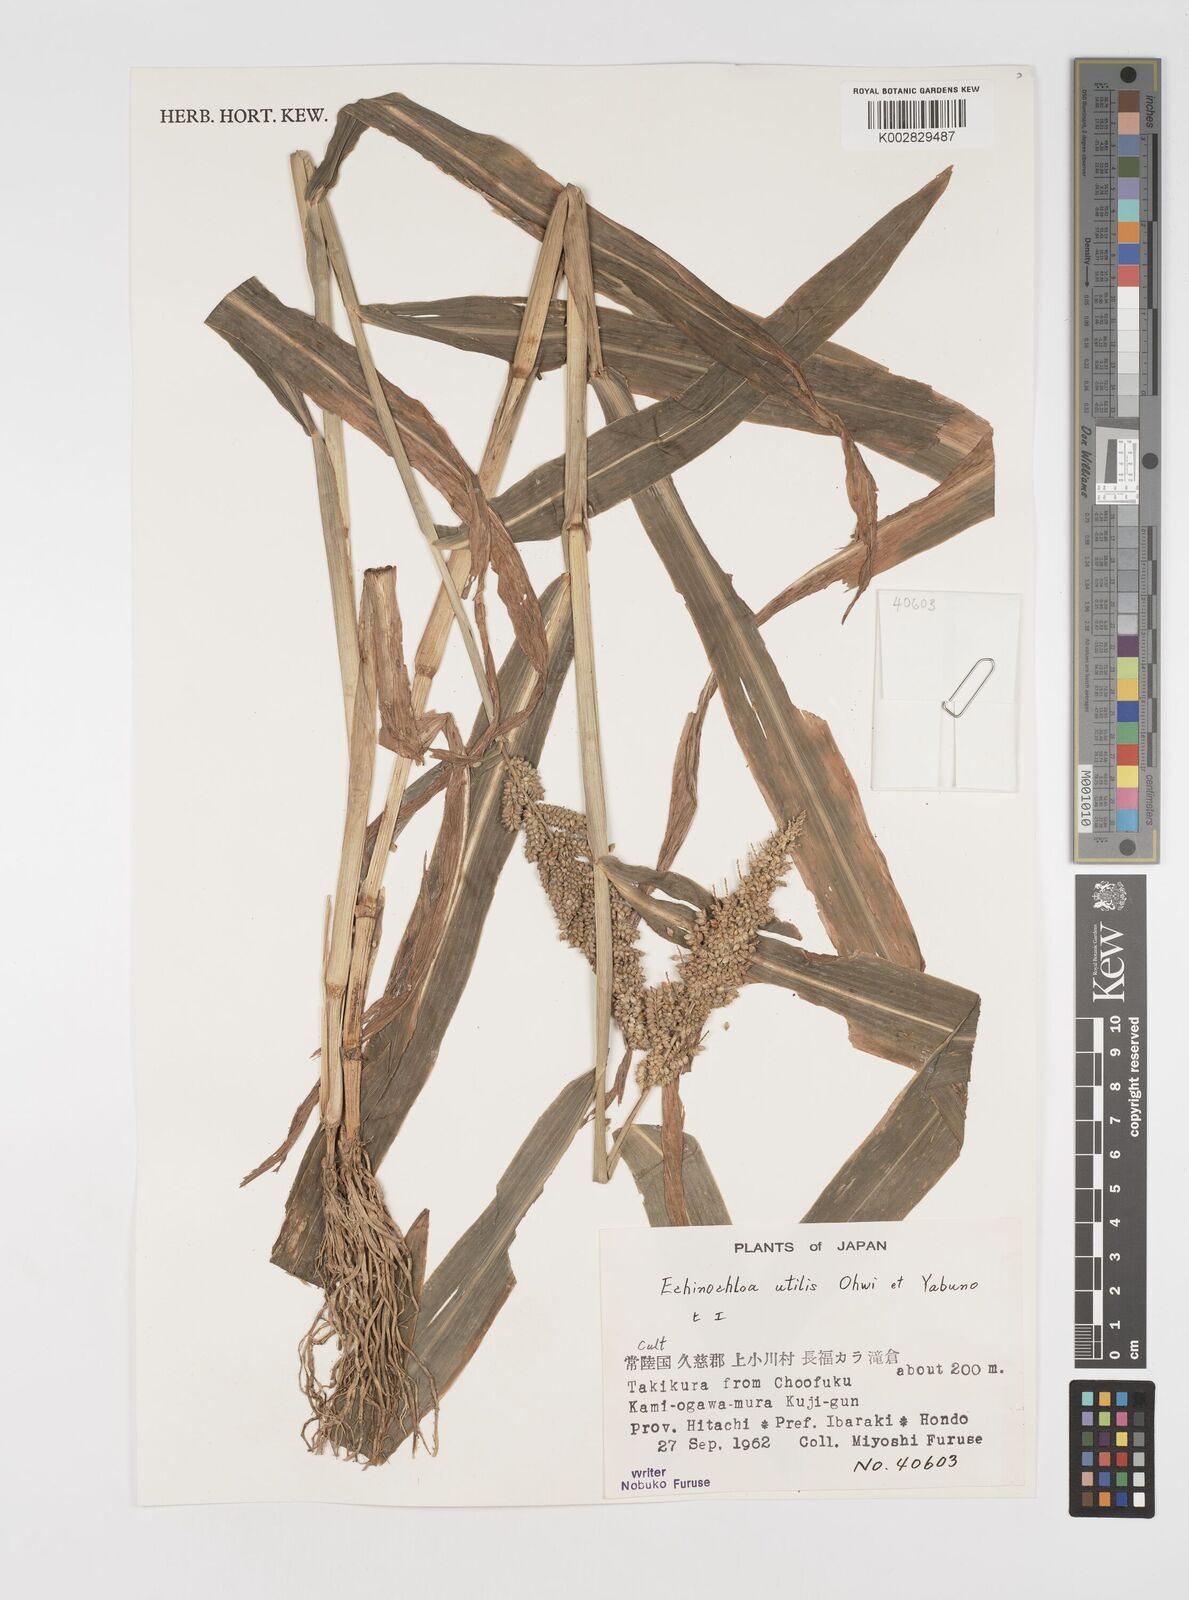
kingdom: Plantae
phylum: Tracheophyta
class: Liliopsida
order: Poales
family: Poaceae
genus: Echinochloa
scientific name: Echinochloa crus-galli
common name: Cockspur
